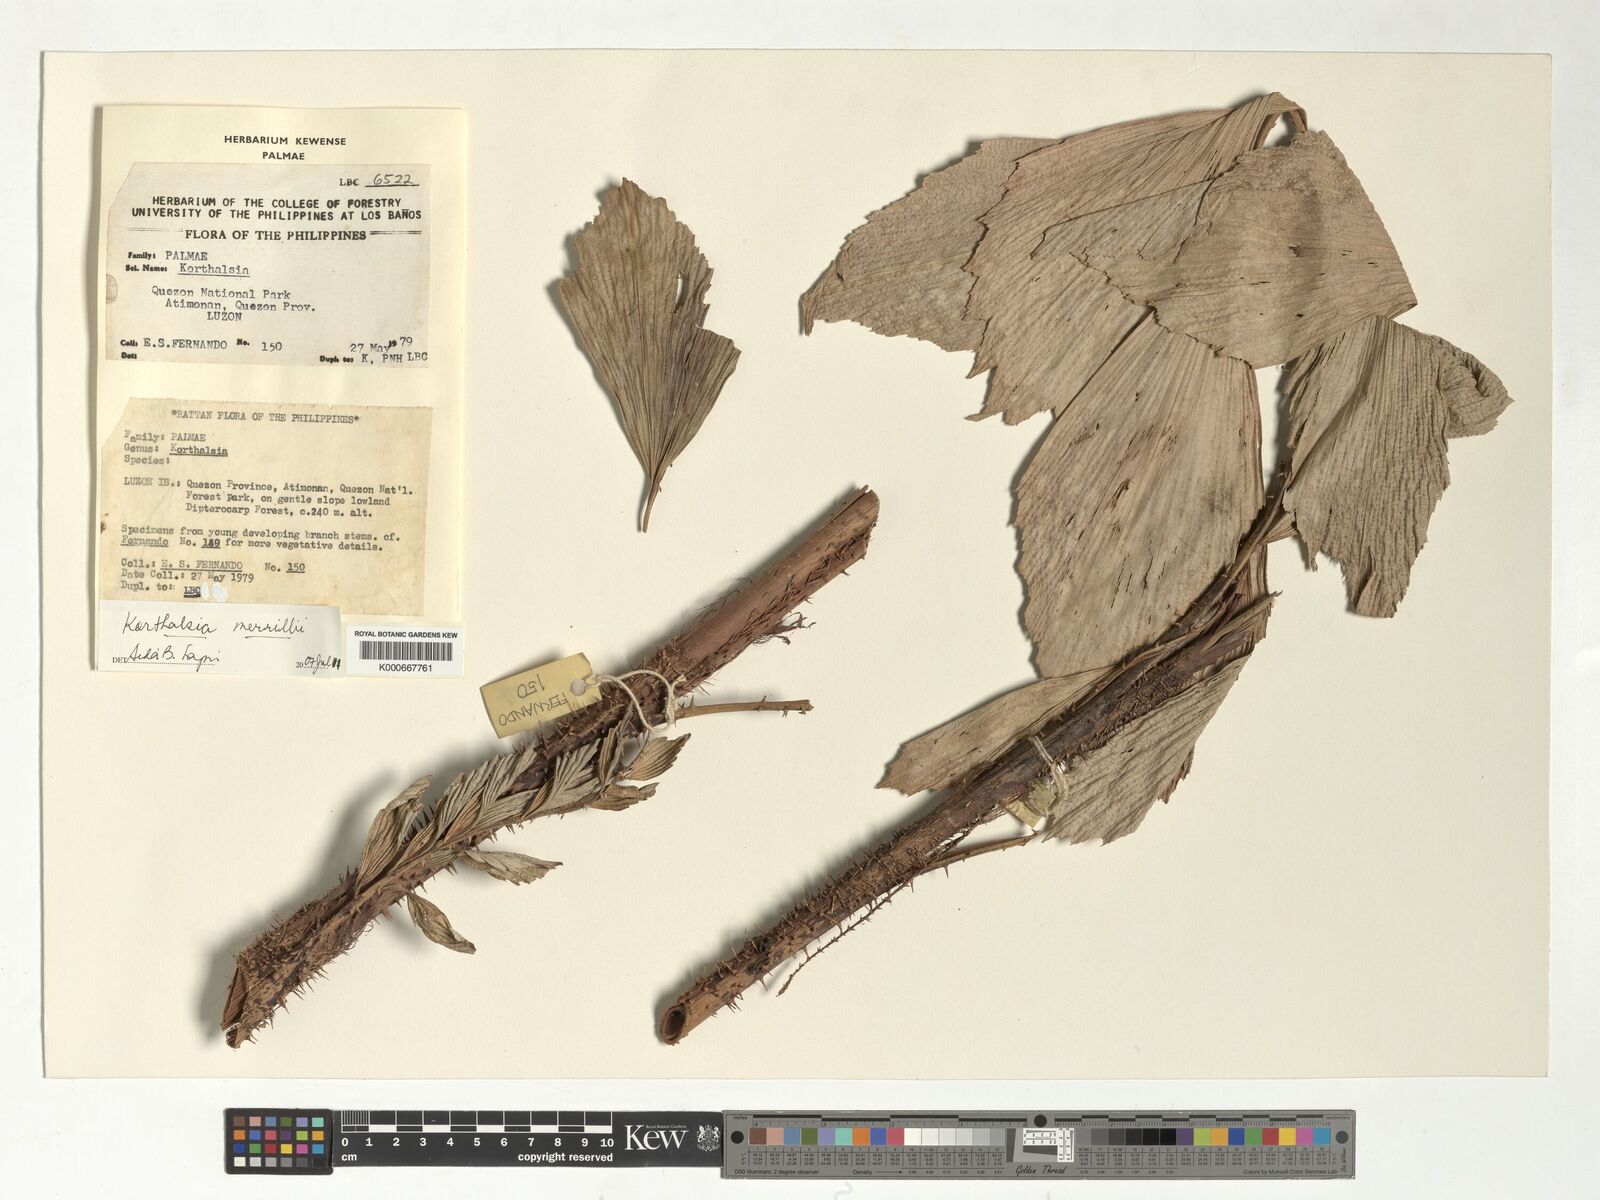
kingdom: Plantae
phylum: Tracheophyta
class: Liliopsida
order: Arecales
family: Arecaceae
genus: Korthalsia
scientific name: Korthalsia merrillii
